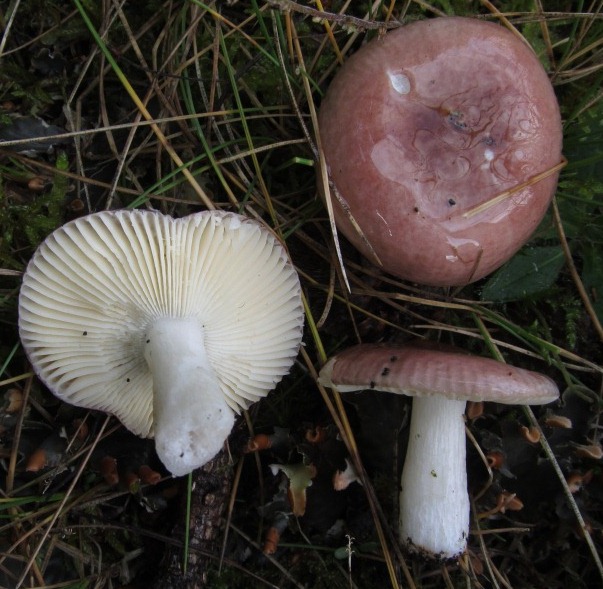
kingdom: Fungi
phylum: Basidiomycota
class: Agaricomycetes
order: Russulales
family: Russulaceae
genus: Russula
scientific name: Russula nauseosa
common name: spinkel skørhat
